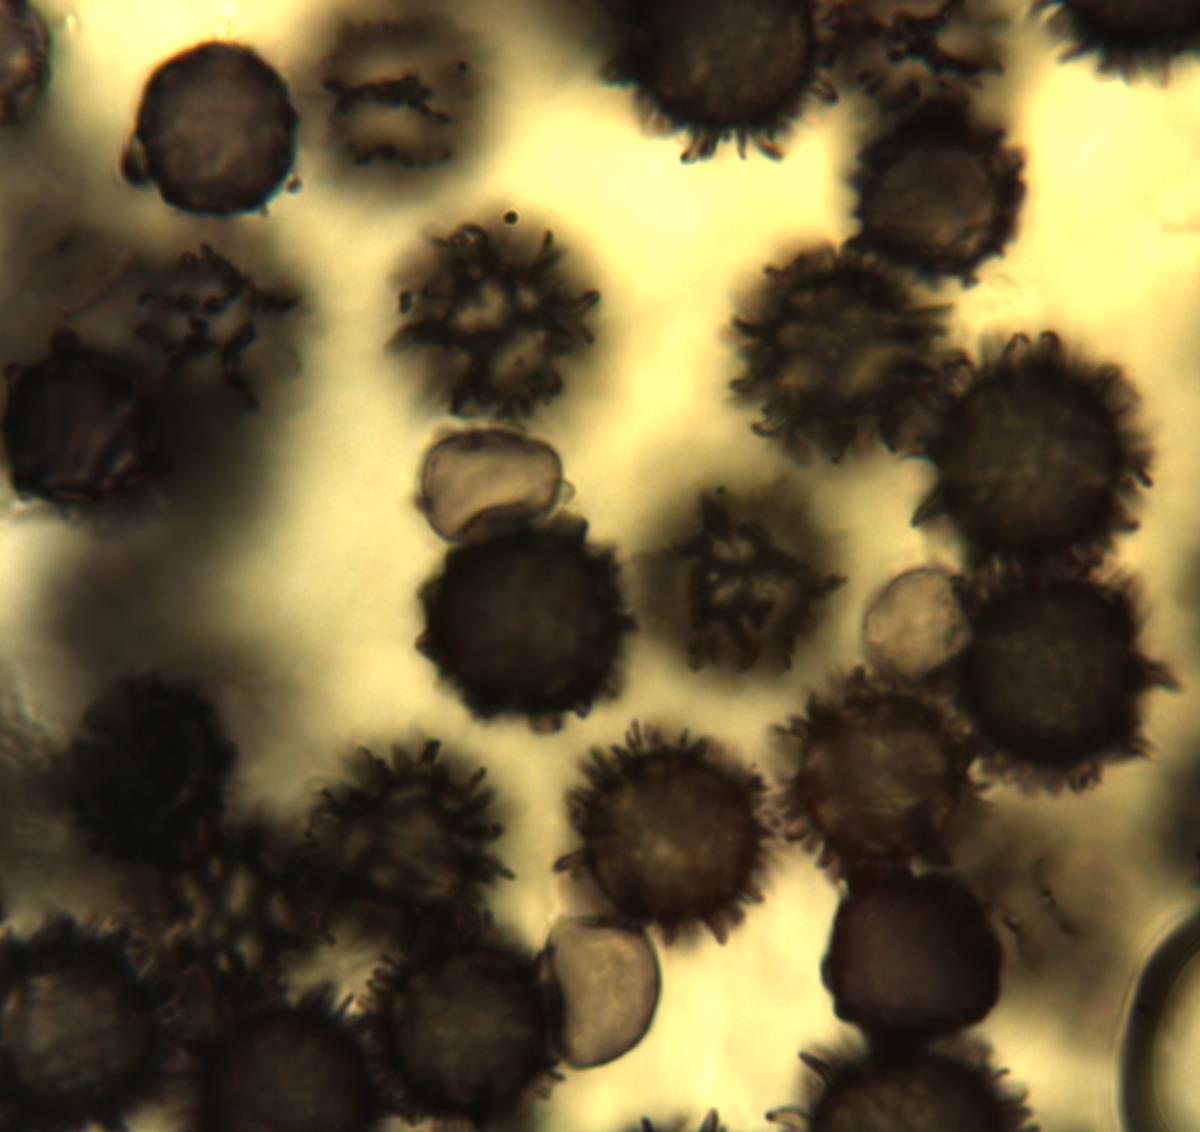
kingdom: Fungi
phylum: Basidiomycota
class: Agaricomycetes
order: Russulales
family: Russulaceae
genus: Russula
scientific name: Russula korystospora
